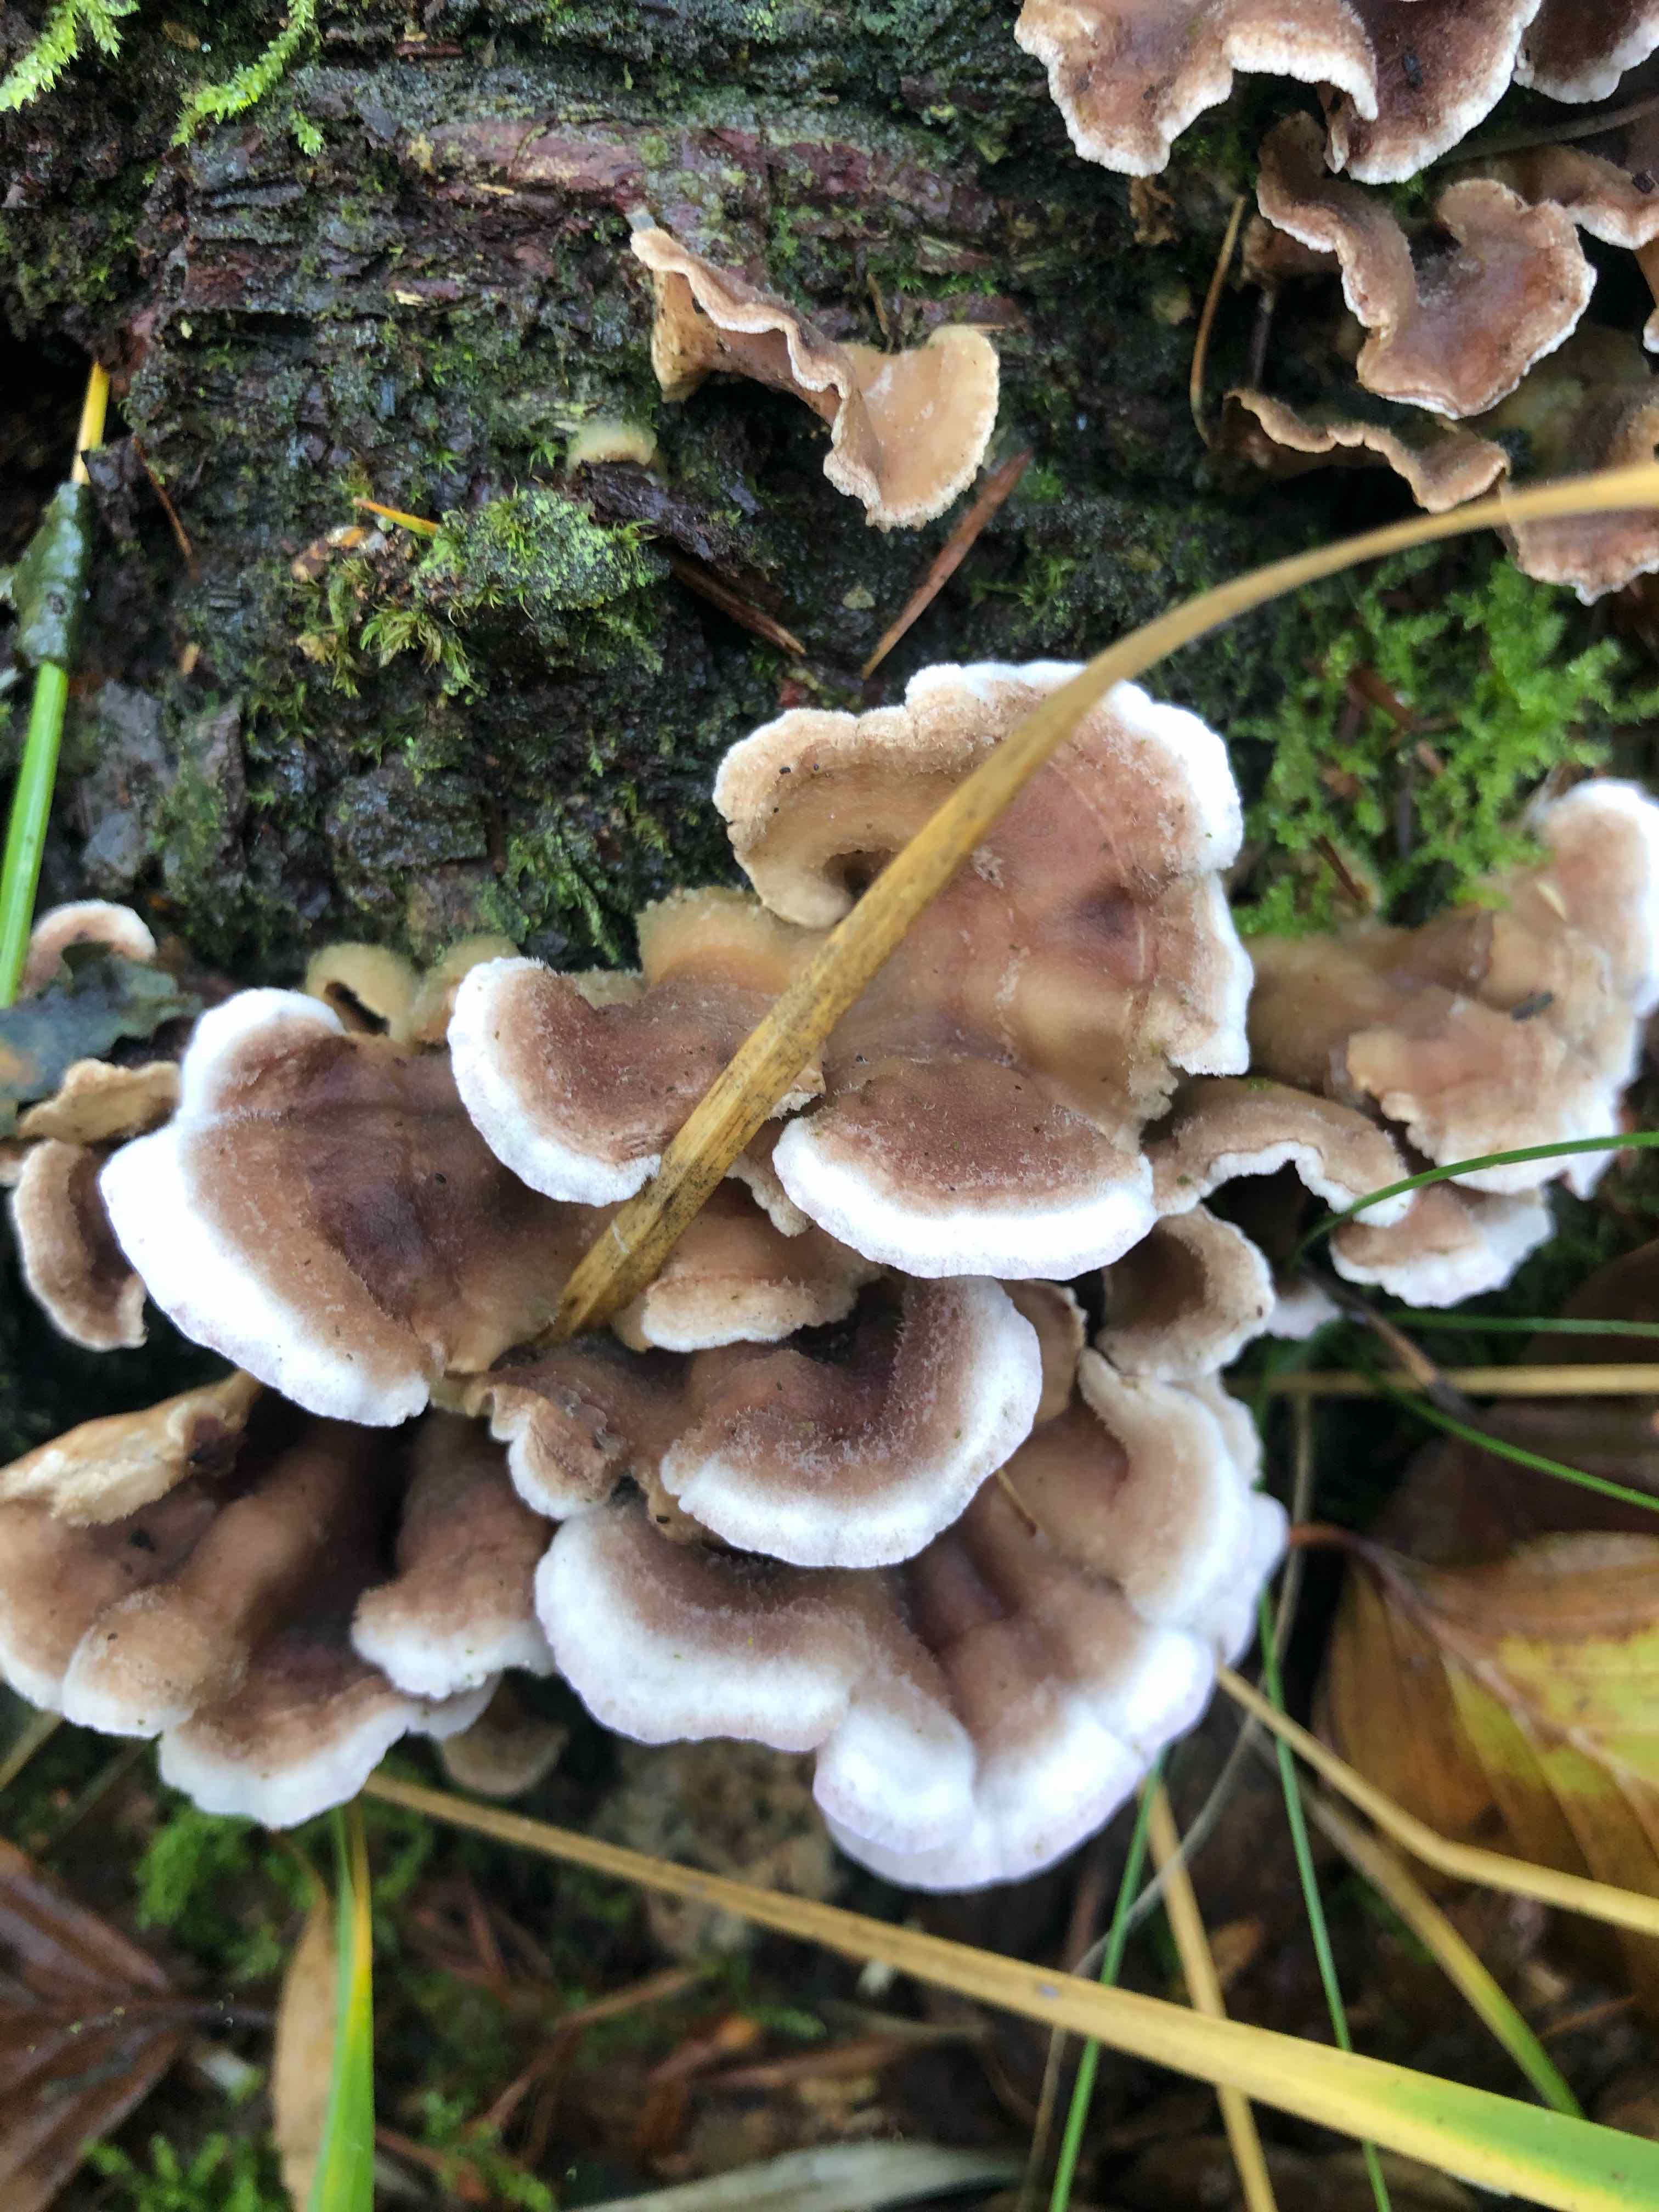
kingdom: Fungi
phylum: Basidiomycota
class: Agaricomycetes
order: Agaricales
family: Cyphellaceae
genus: Chondrostereum
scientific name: Chondrostereum purpureum
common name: purpurlædersvamp
